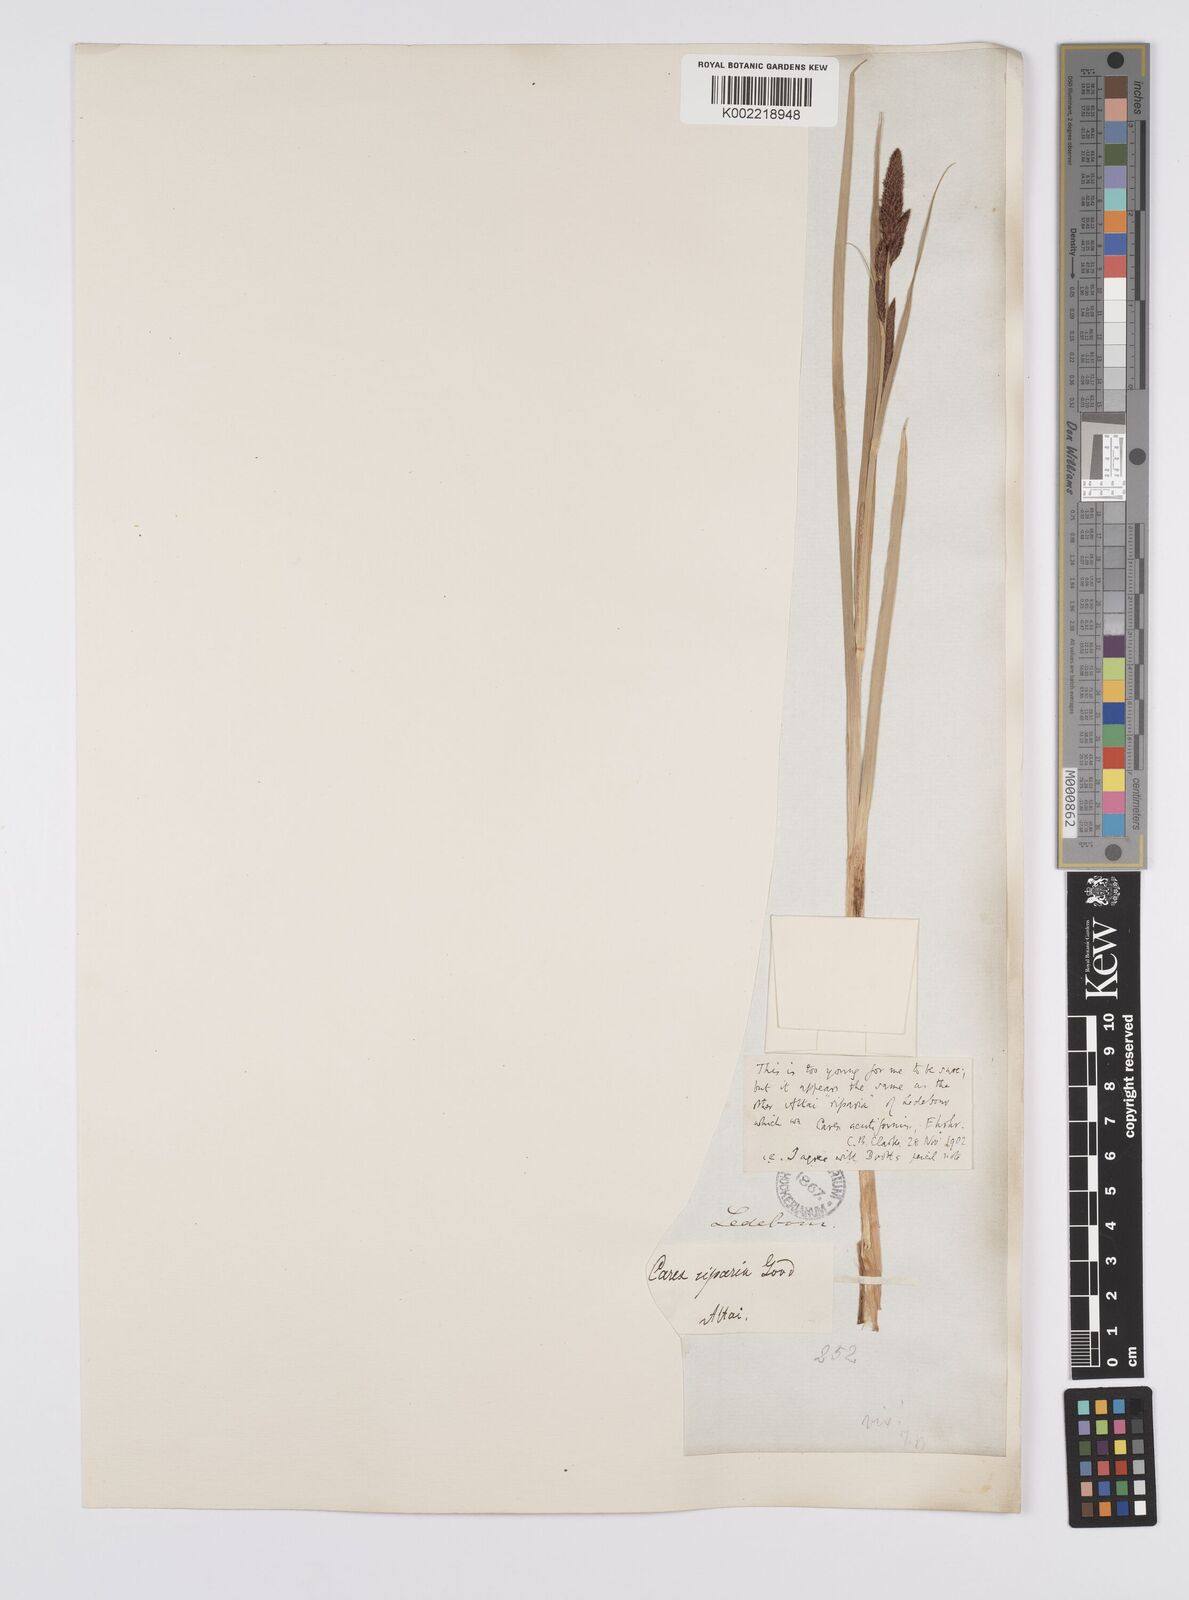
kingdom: Plantae
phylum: Tracheophyta
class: Liliopsida
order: Poales
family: Cyperaceae
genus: Carex
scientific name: Carex acutiformis
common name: Lesser pond-sedge
